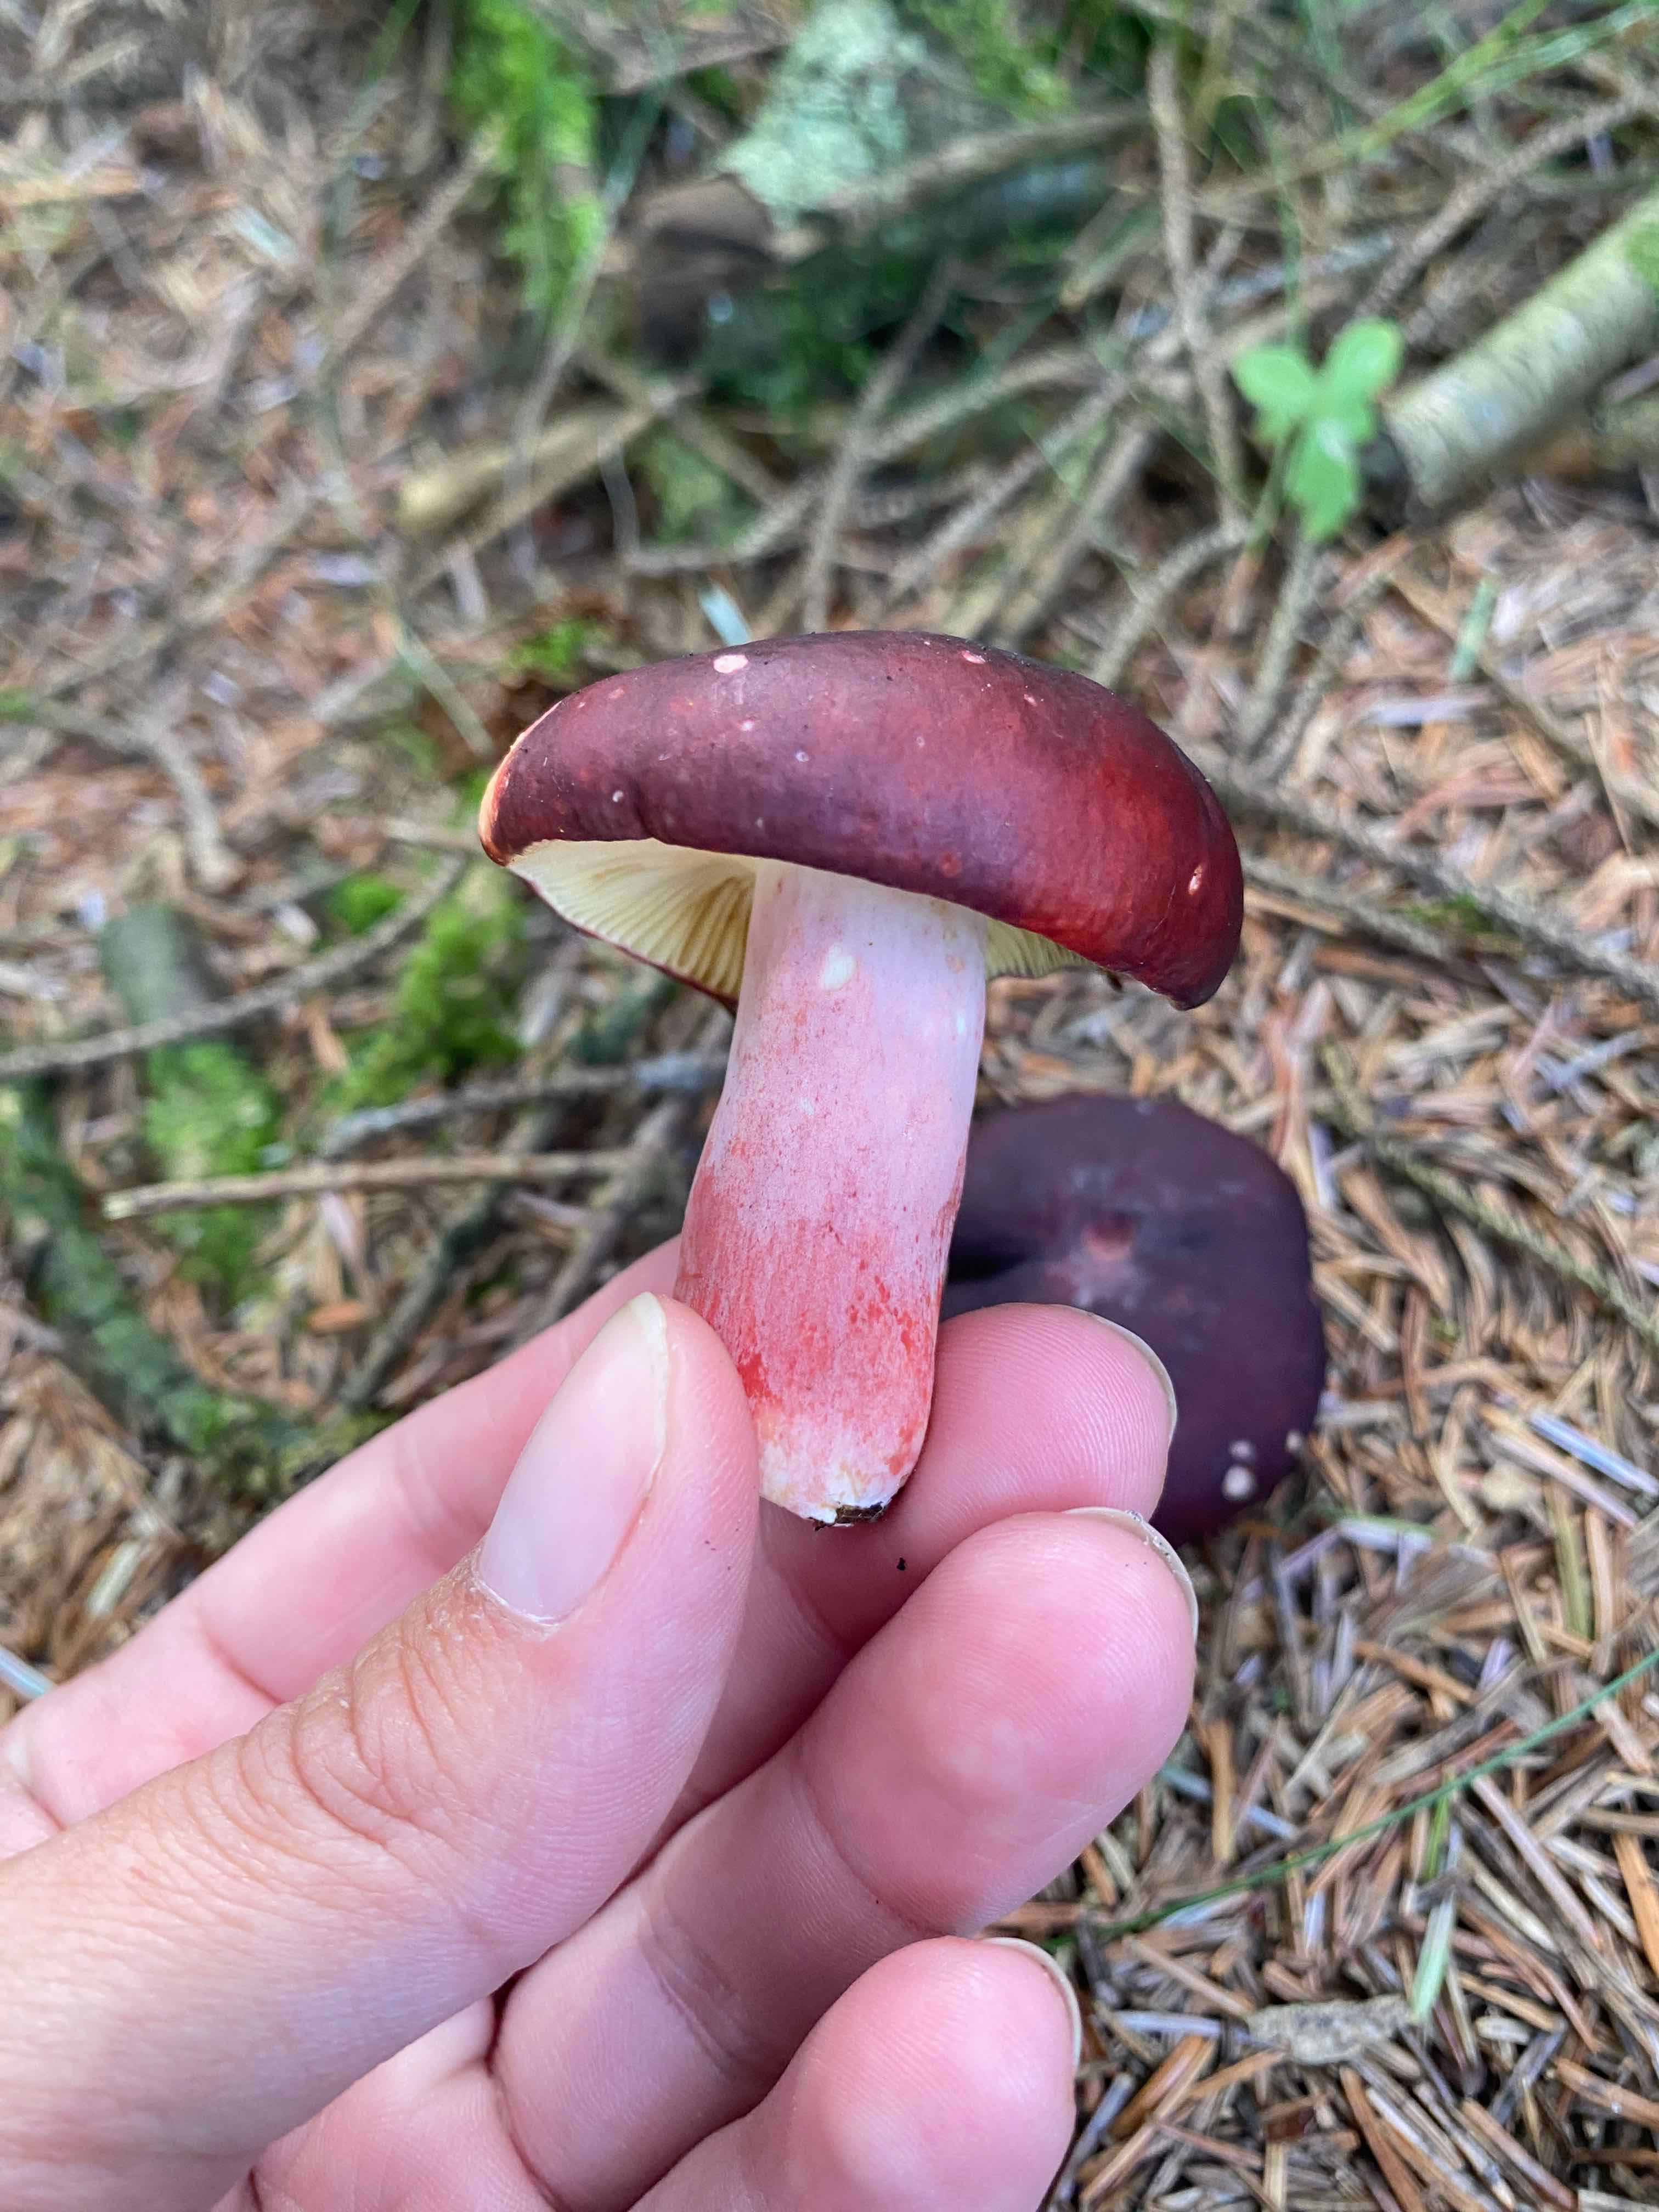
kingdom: Fungi
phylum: Basidiomycota
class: Agaricomycetes
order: Russulales
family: Russulaceae
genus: Russula
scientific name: Russula
